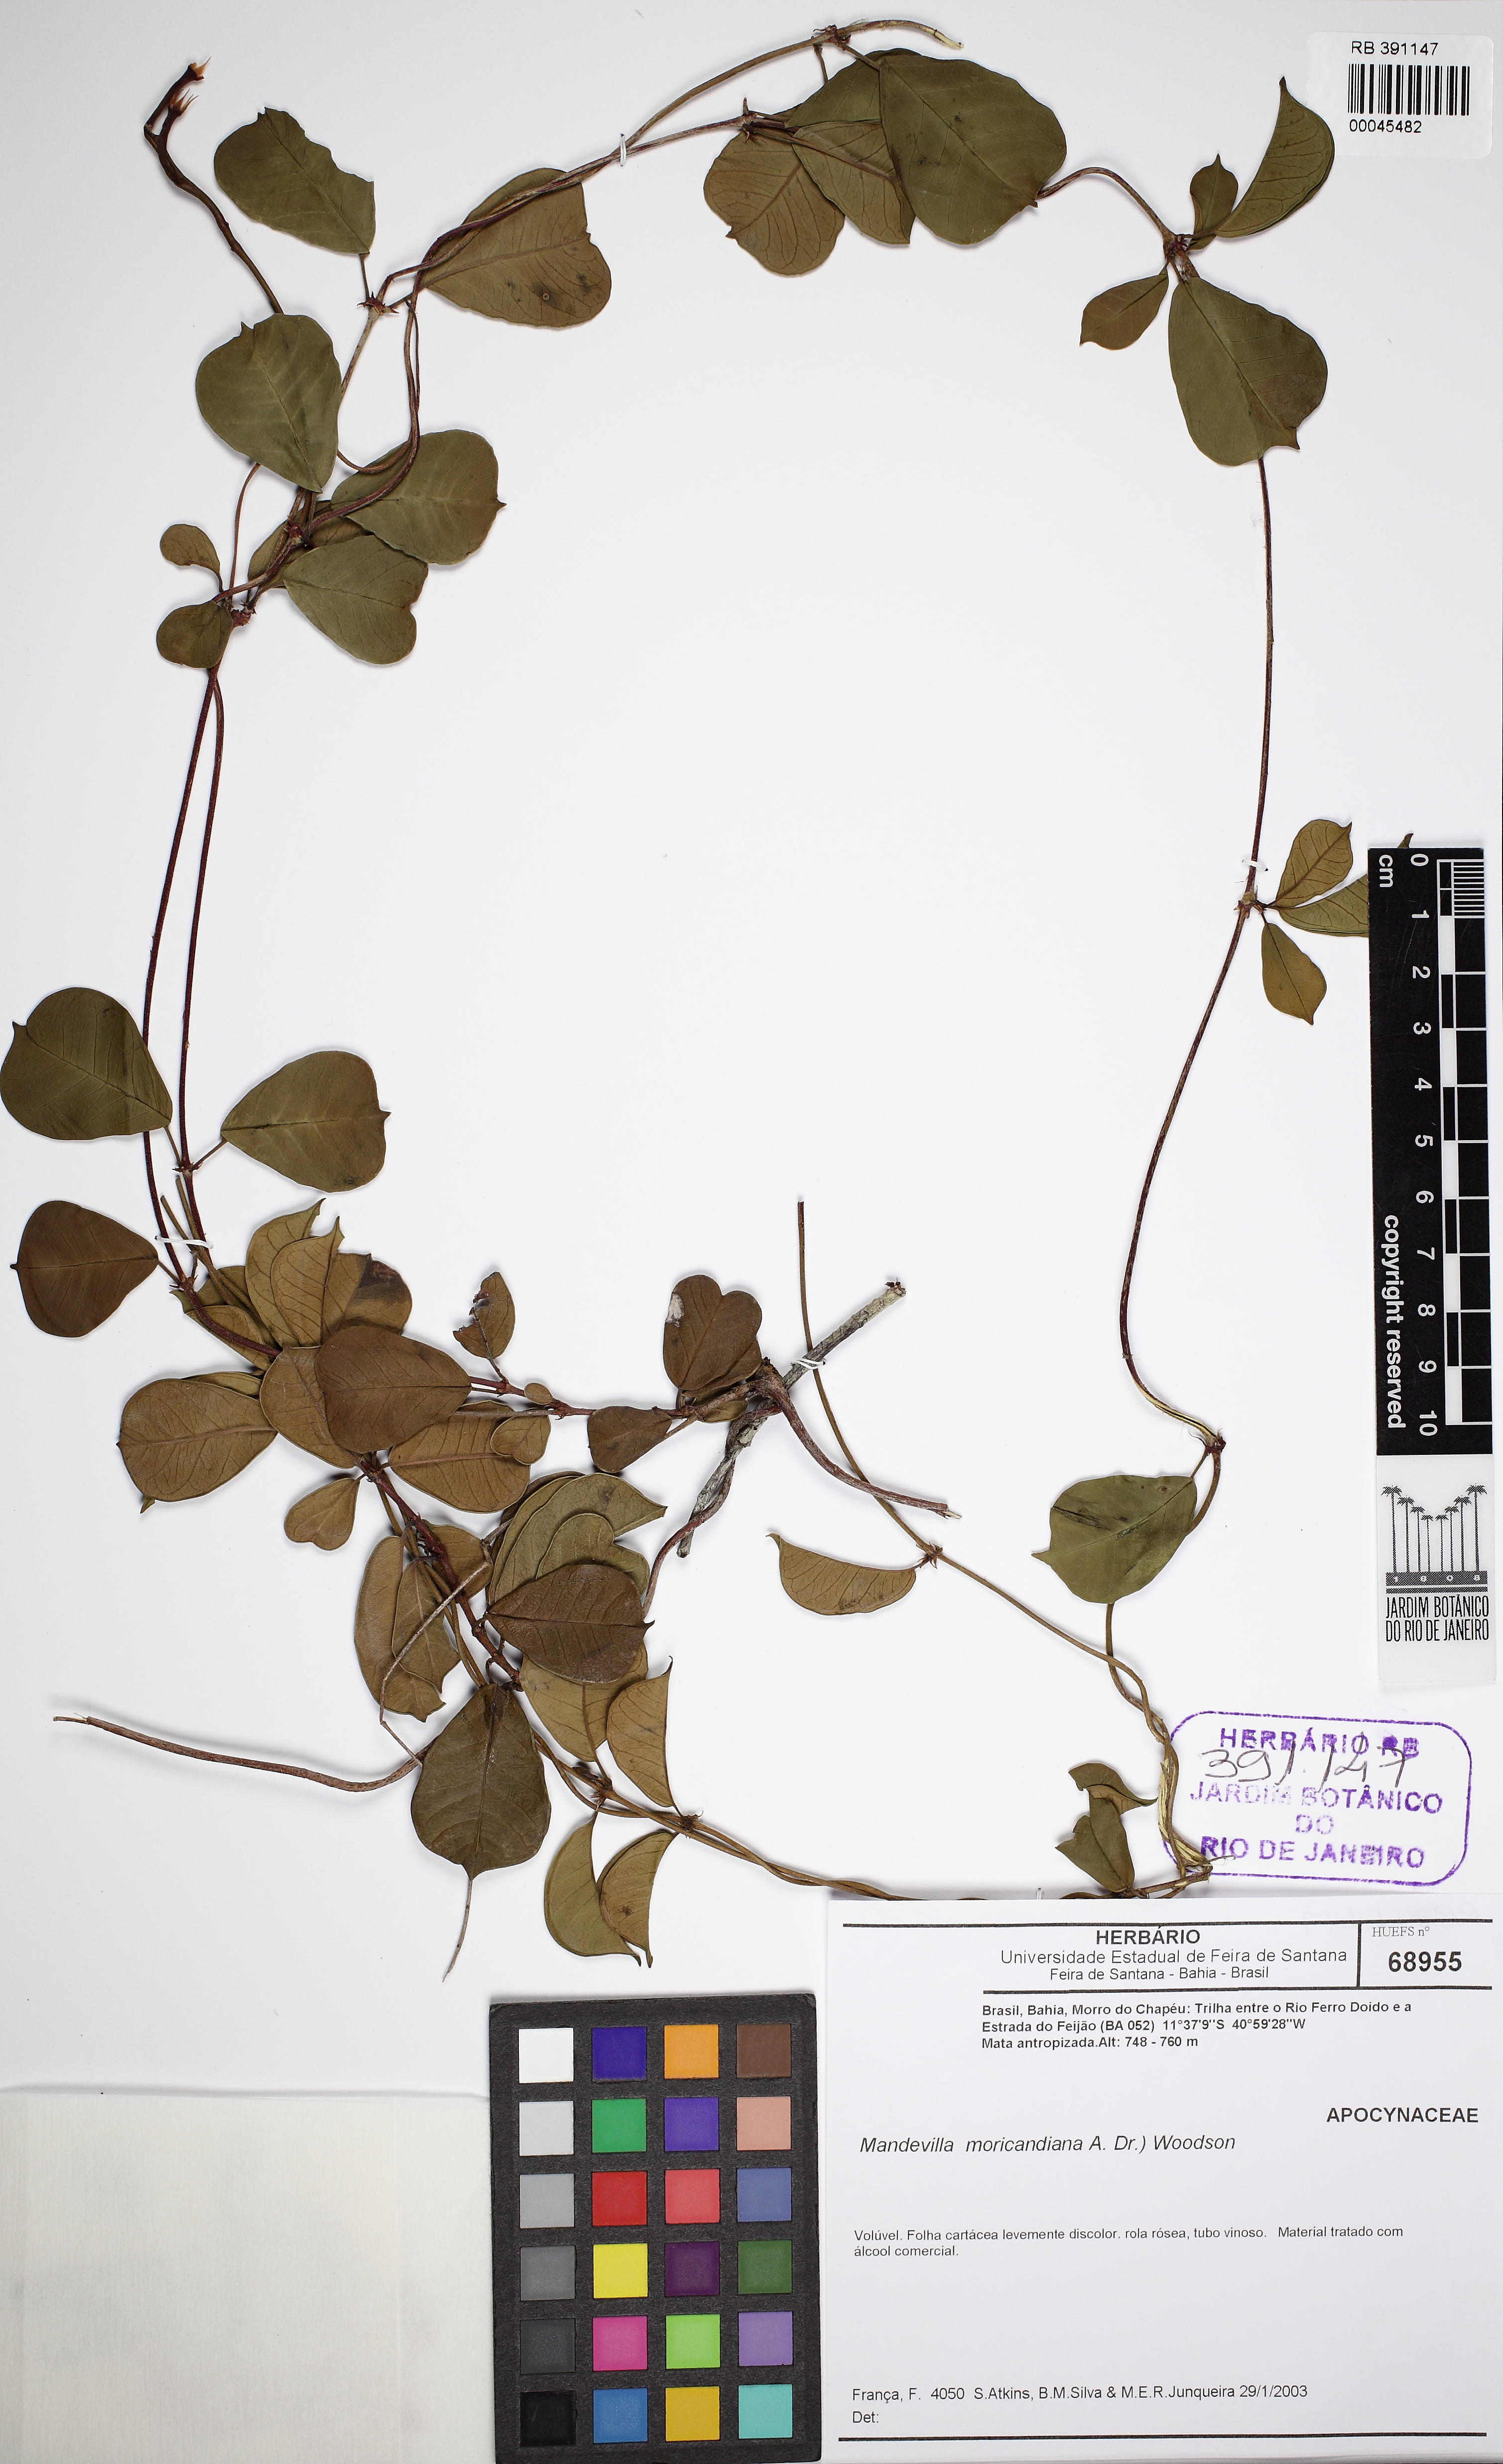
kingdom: Plantae
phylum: Tracheophyta
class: Magnoliopsida
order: Gentianales
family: Apocynaceae
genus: Mandevilla
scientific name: Mandevilla moricandiana
